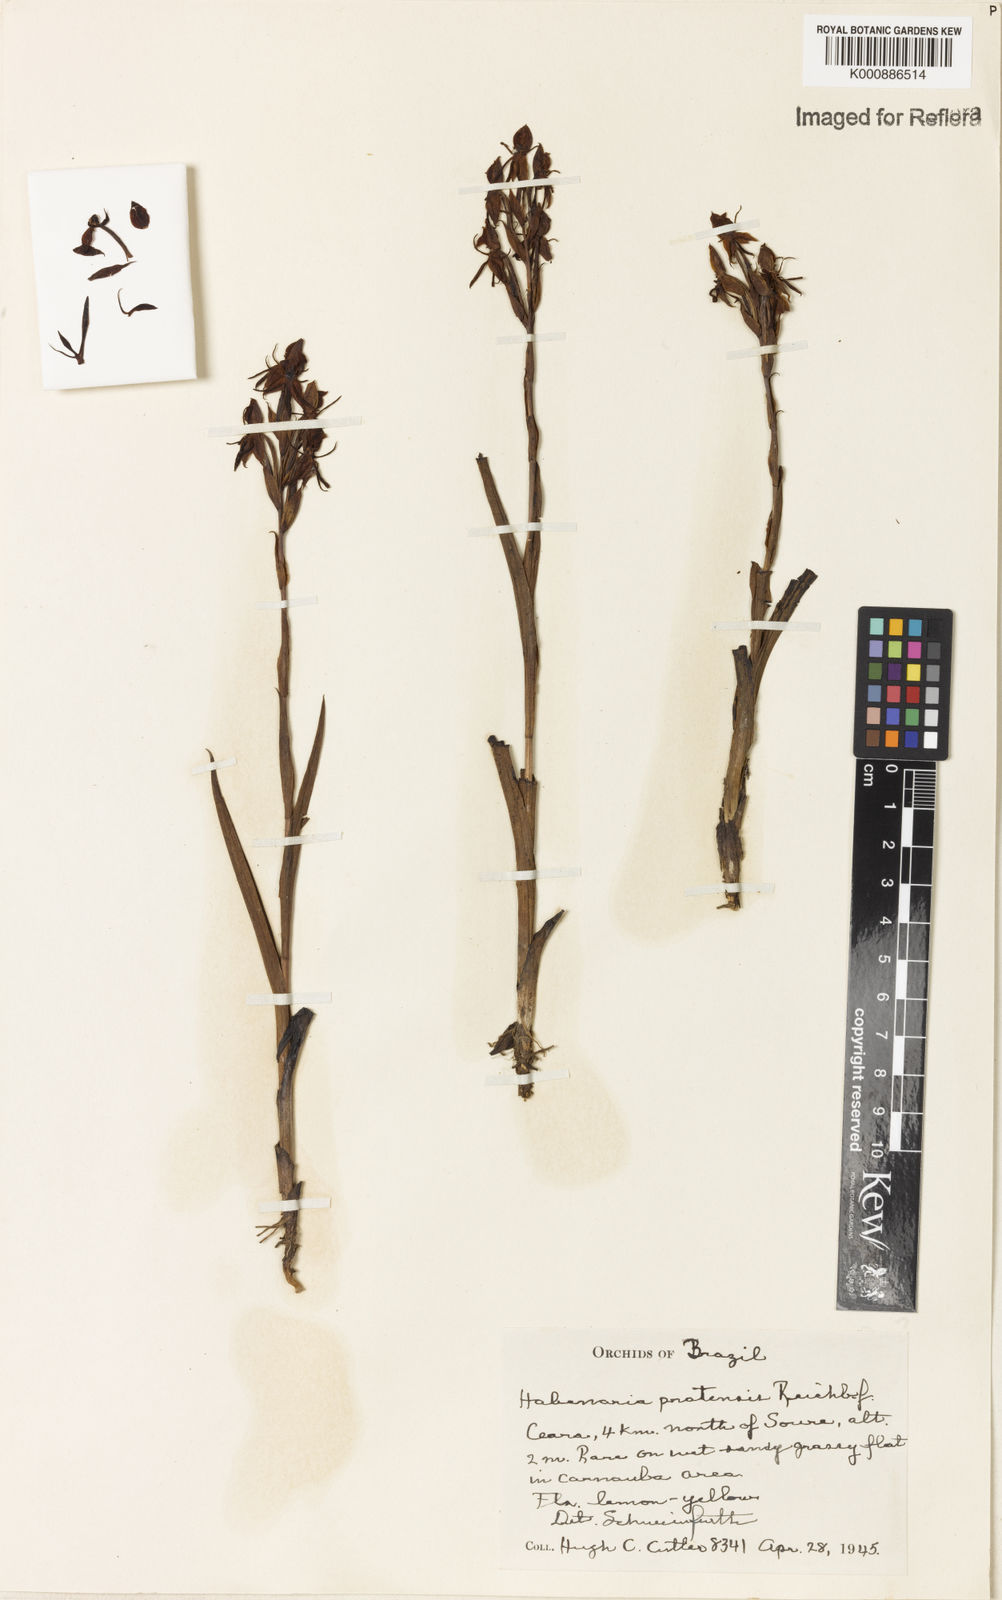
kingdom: Plantae
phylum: Tracheophyta
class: Liliopsida
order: Asparagales
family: Orchidaceae
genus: Habenaria
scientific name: Habenaria pratensis
